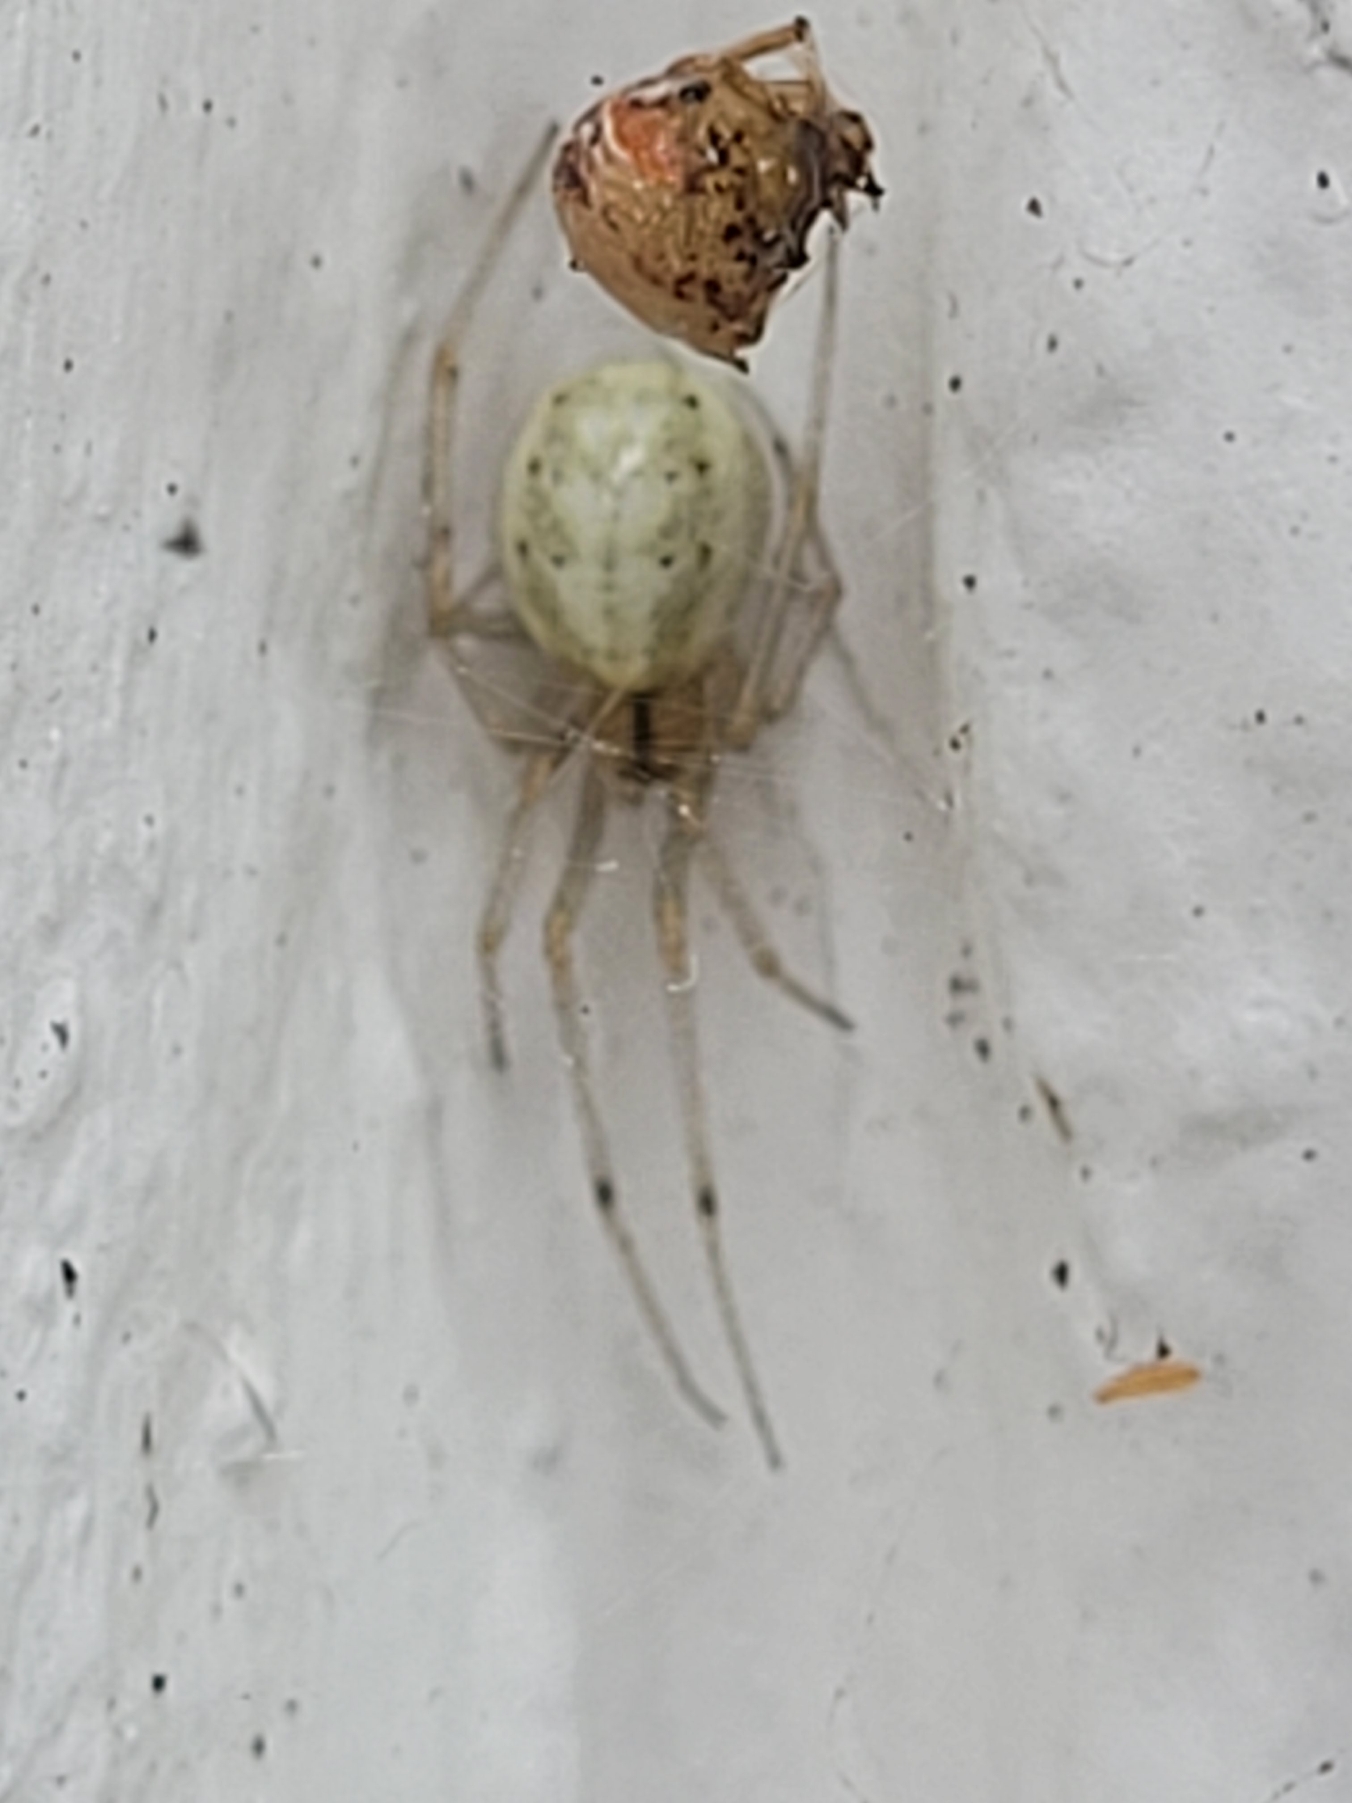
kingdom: Animalia
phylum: Arthropoda
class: Arachnida
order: Araneae
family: Theridiidae
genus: Enoplognatha
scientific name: Enoplognatha
